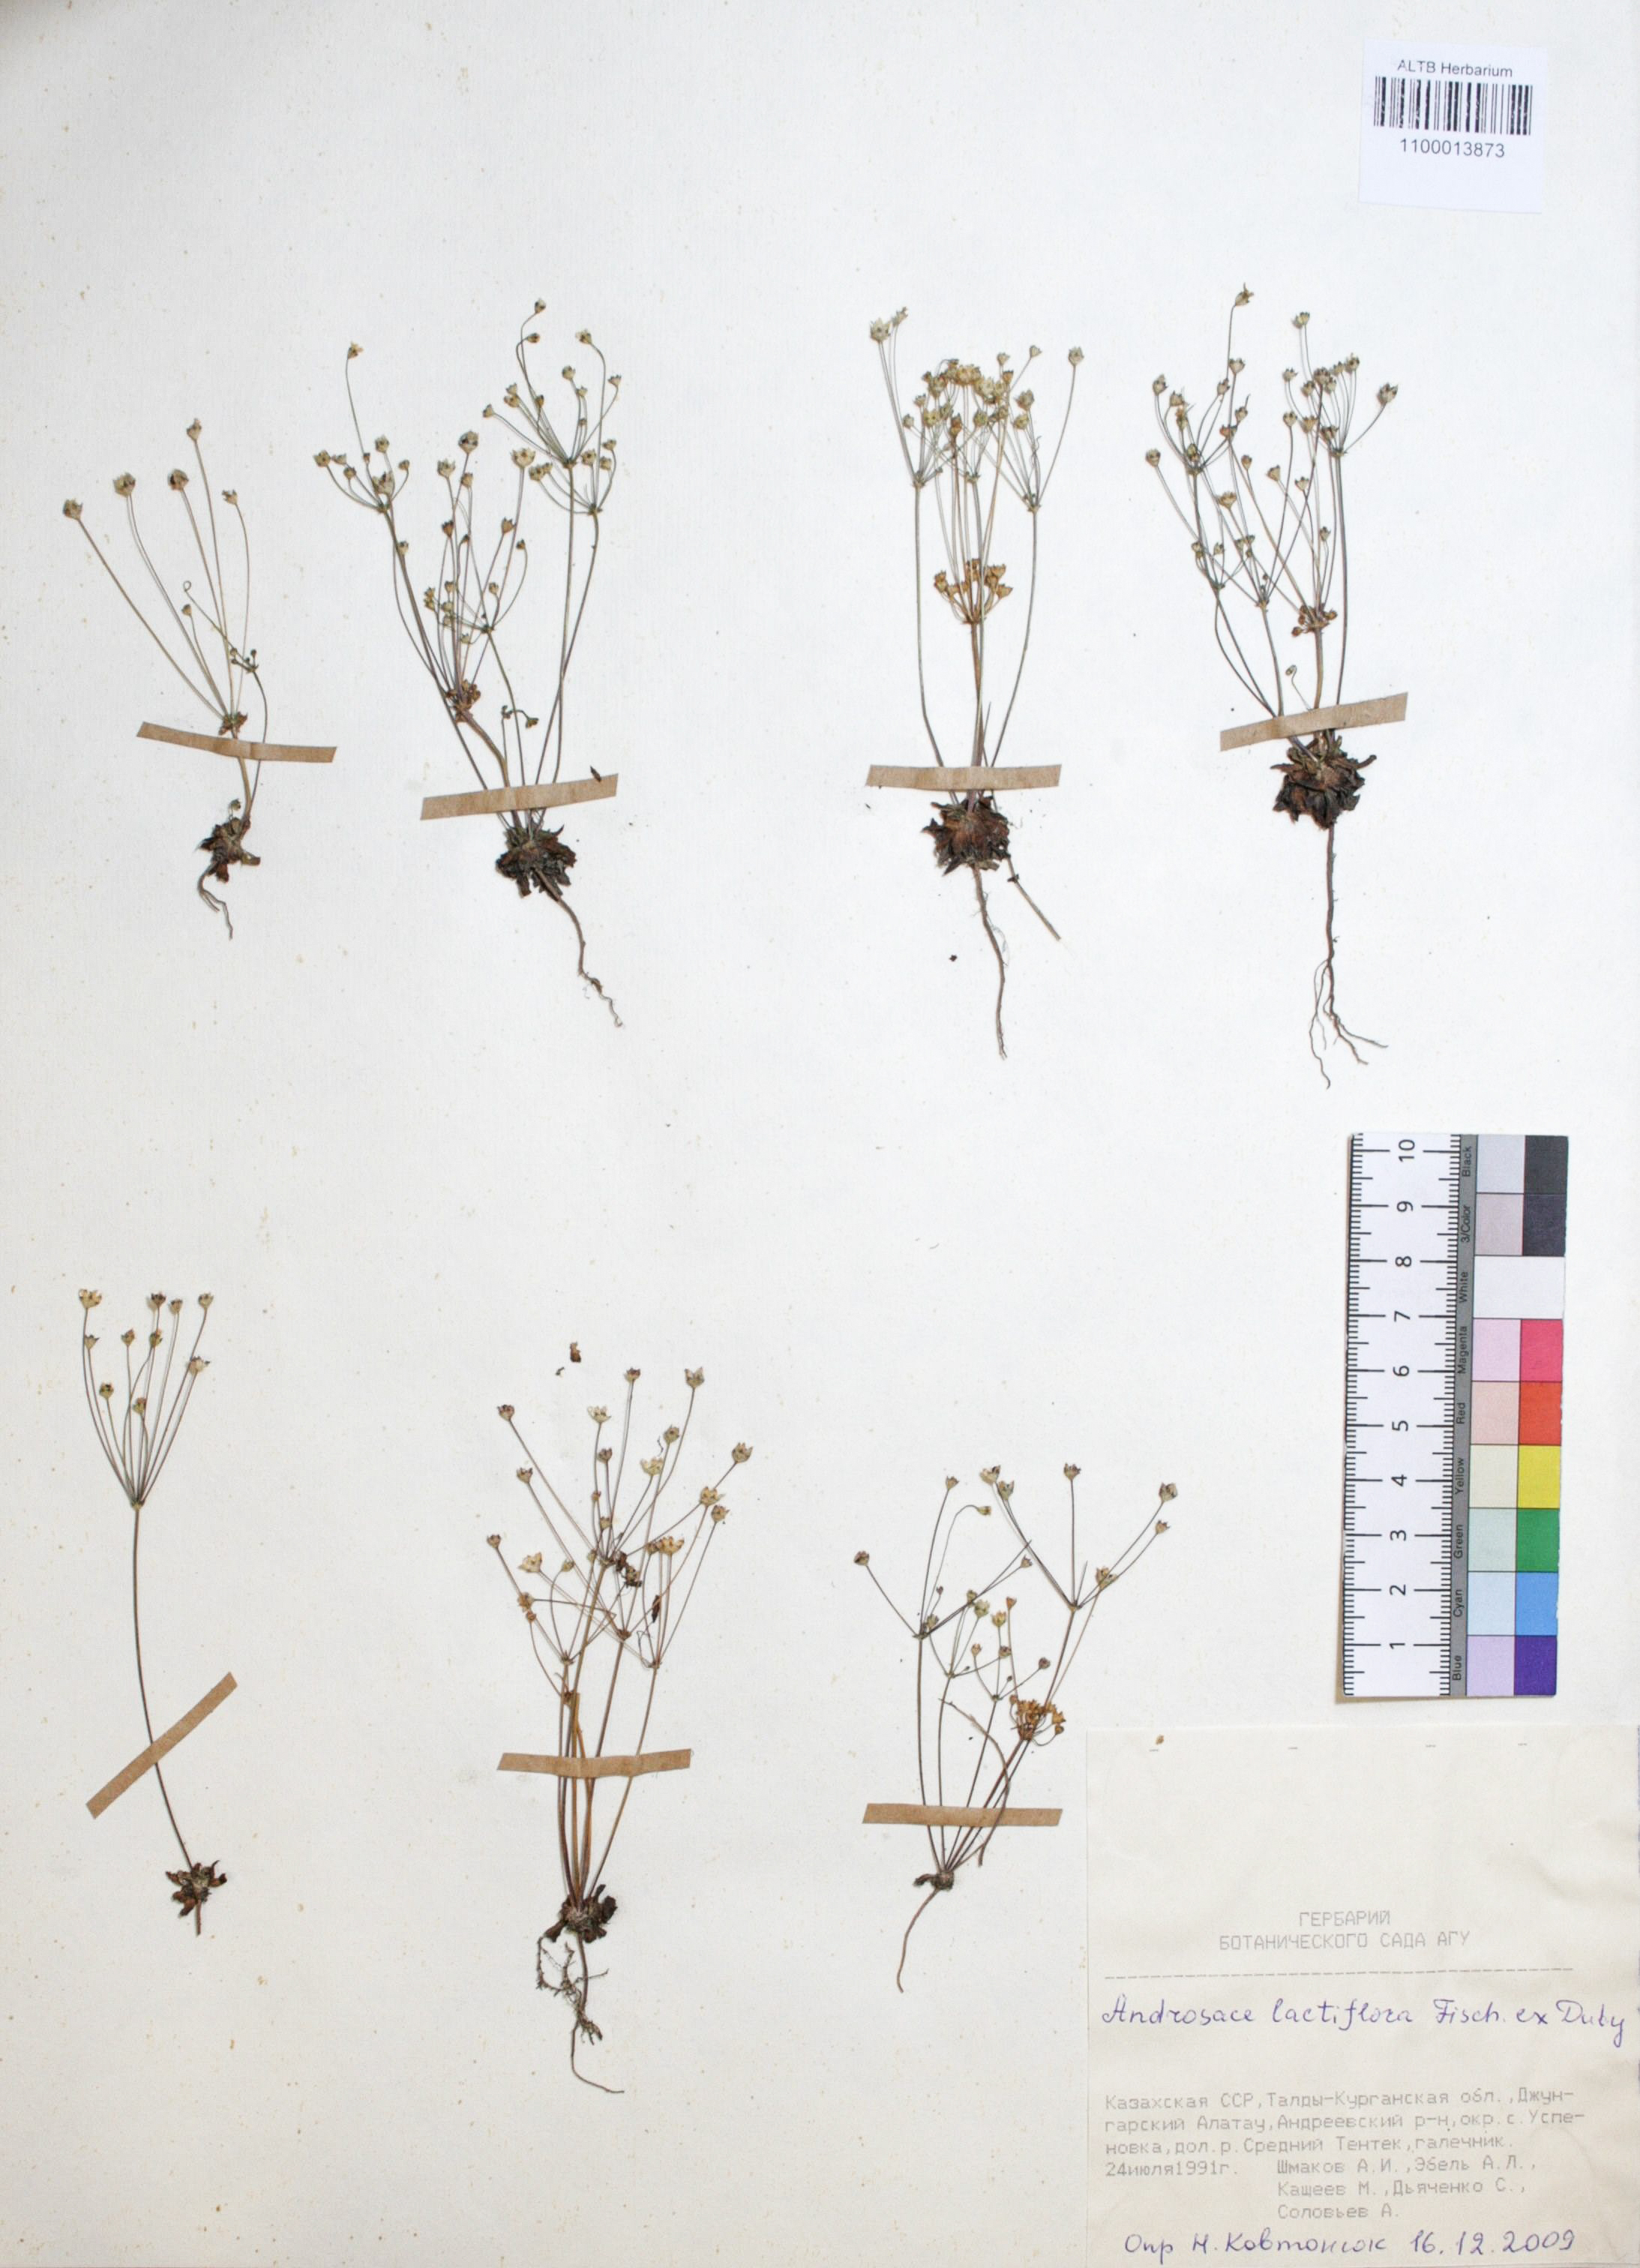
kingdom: Plantae
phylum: Tracheophyta
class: Magnoliopsida
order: Ericales
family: Primulaceae
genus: Androsace
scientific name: Androsace lactiflora
